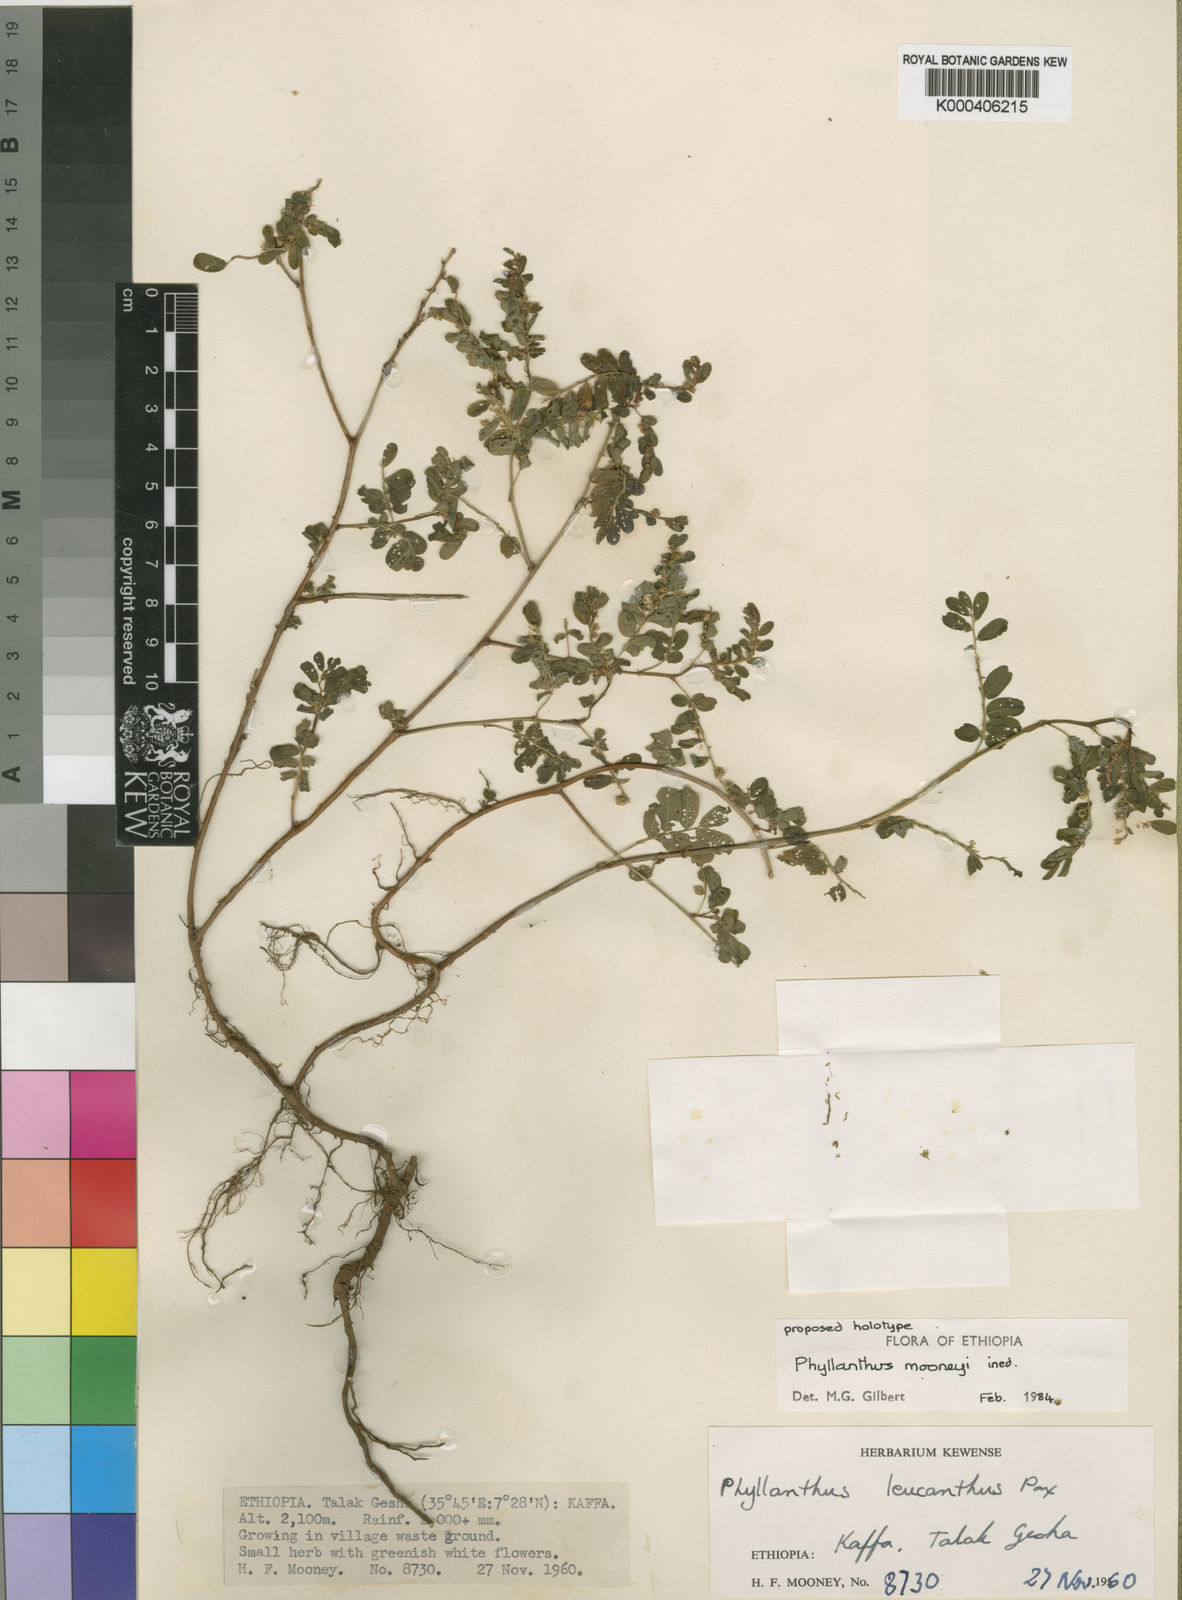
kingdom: Plantae
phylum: Tracheophyta
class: Magnoliopsida
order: Malpighiales
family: Phyllanthaceae
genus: Phyllanthus
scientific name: Phyllanthus mooneyi
